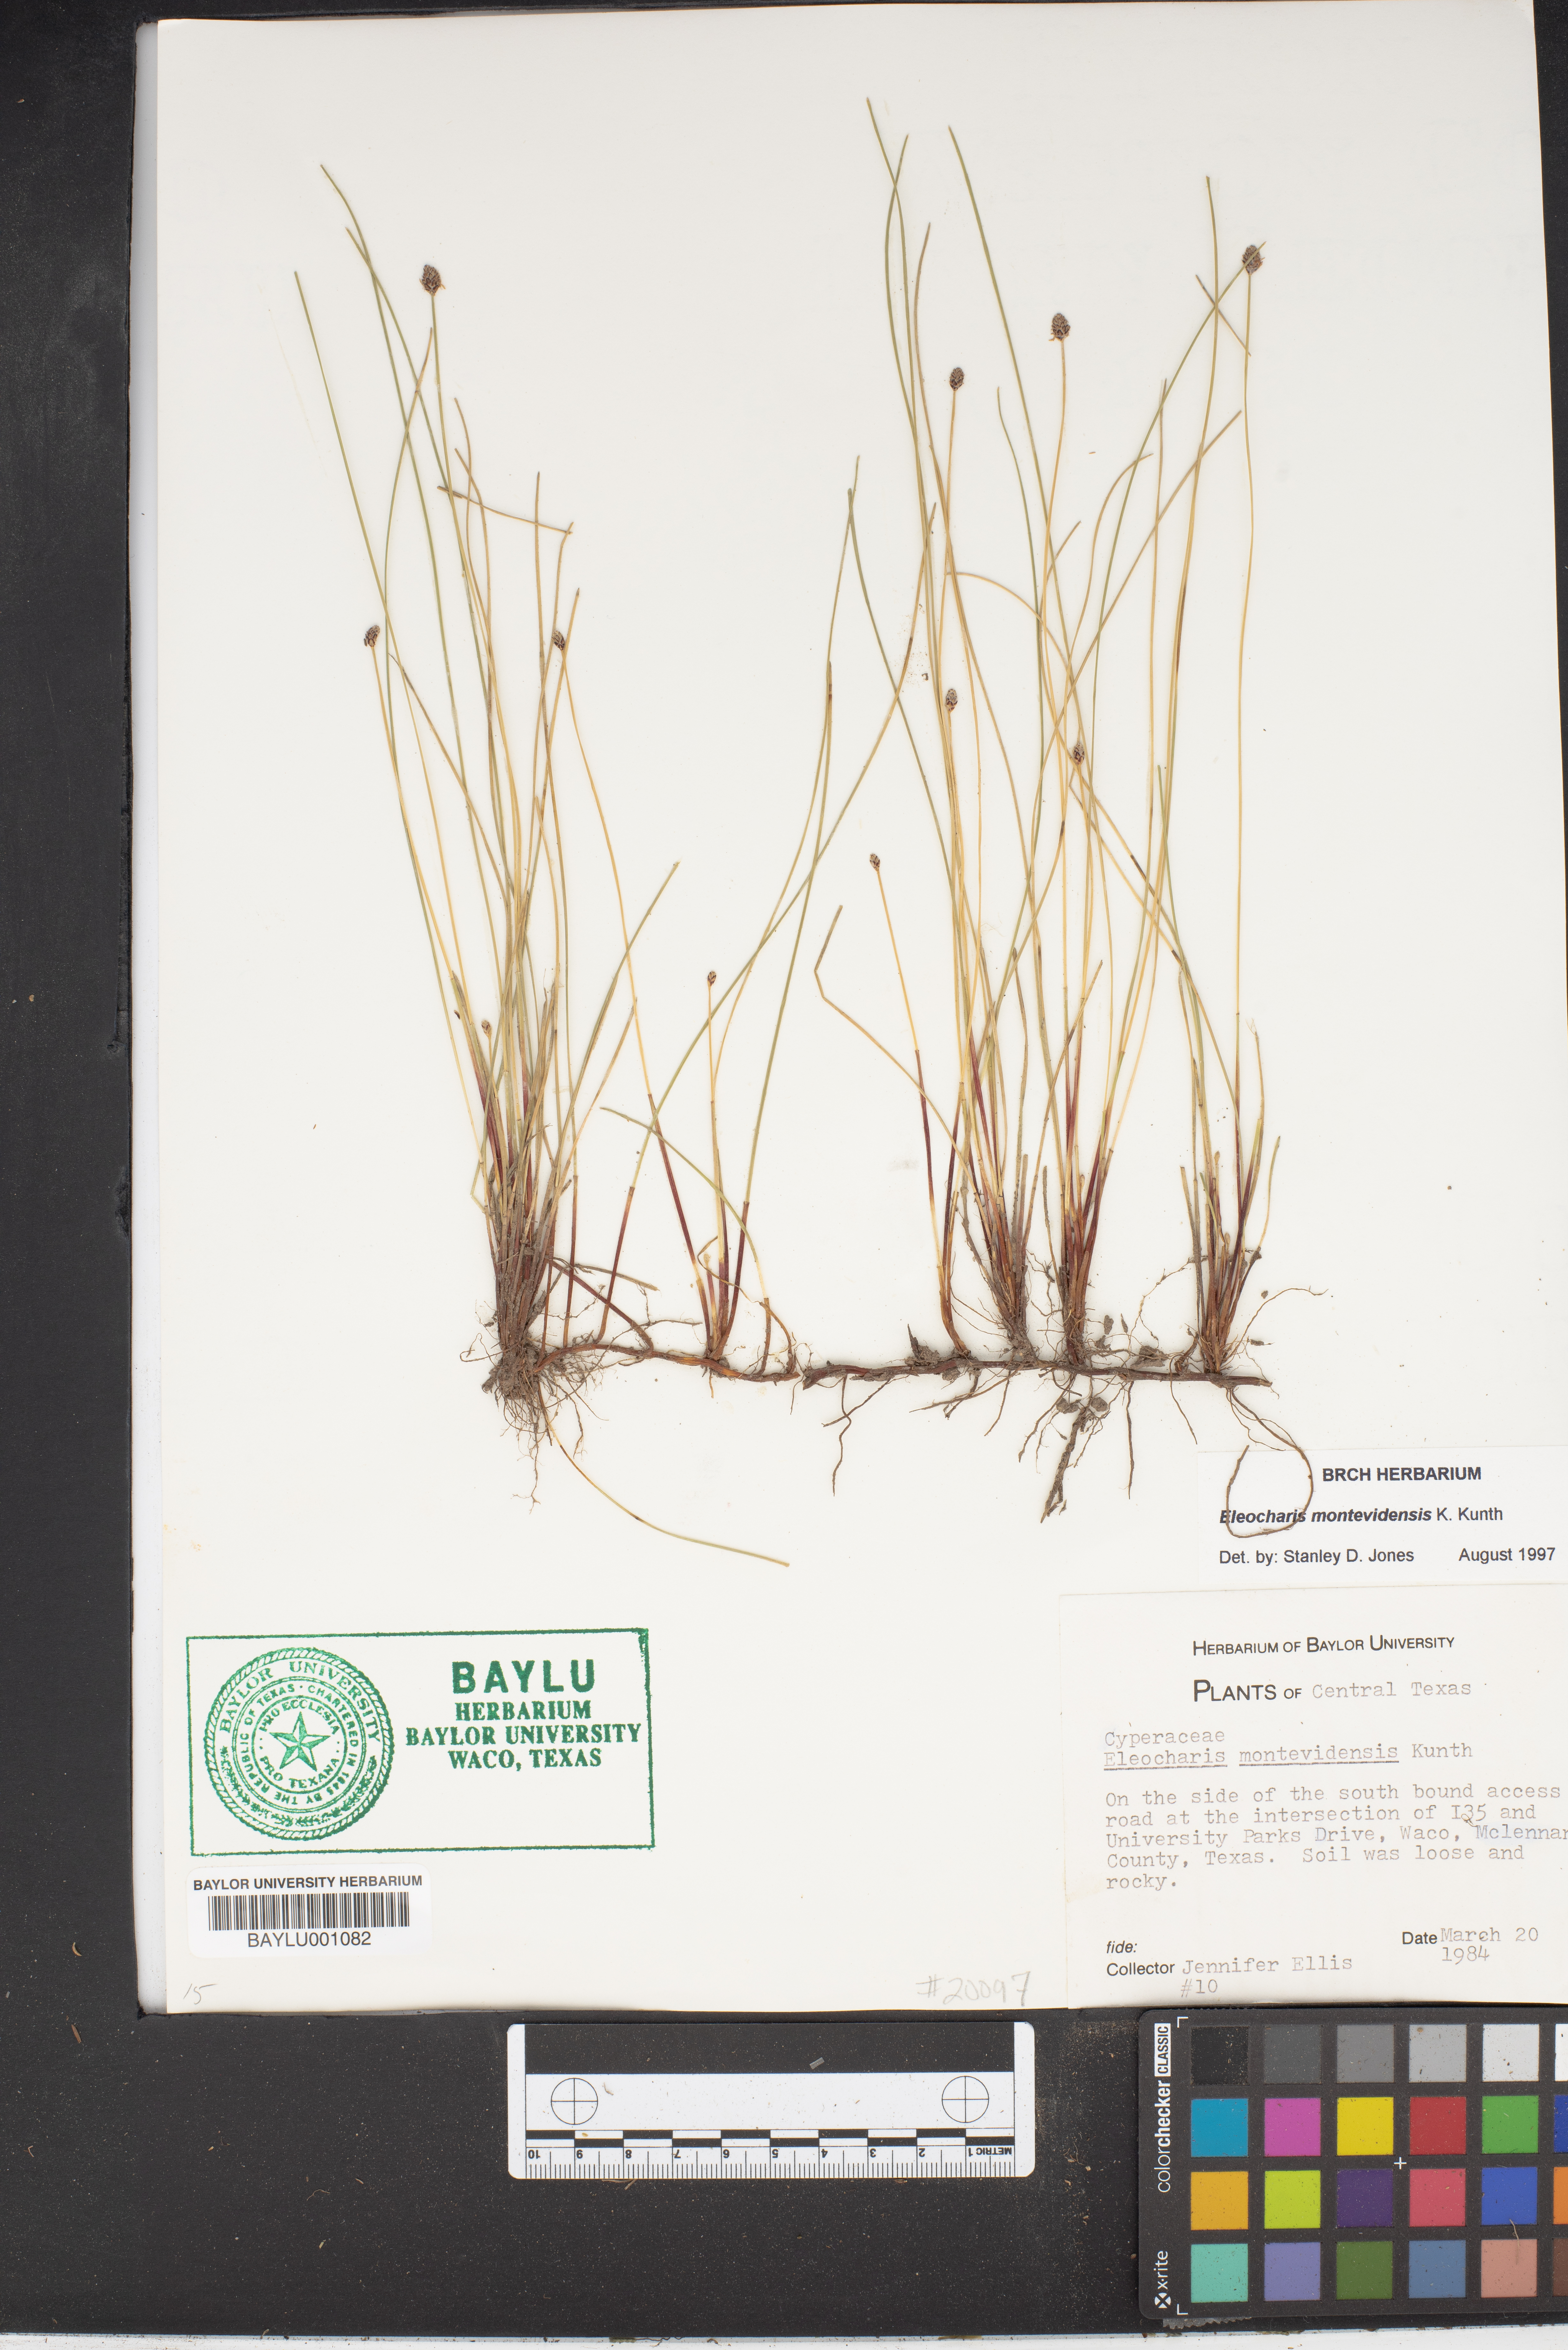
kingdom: Plantae
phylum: Tracheophyta
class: Liliopsida
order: Poales
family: Cyperaceae
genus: Eleocharis
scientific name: Eleocharis montevidensis
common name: Sand spike-rush
